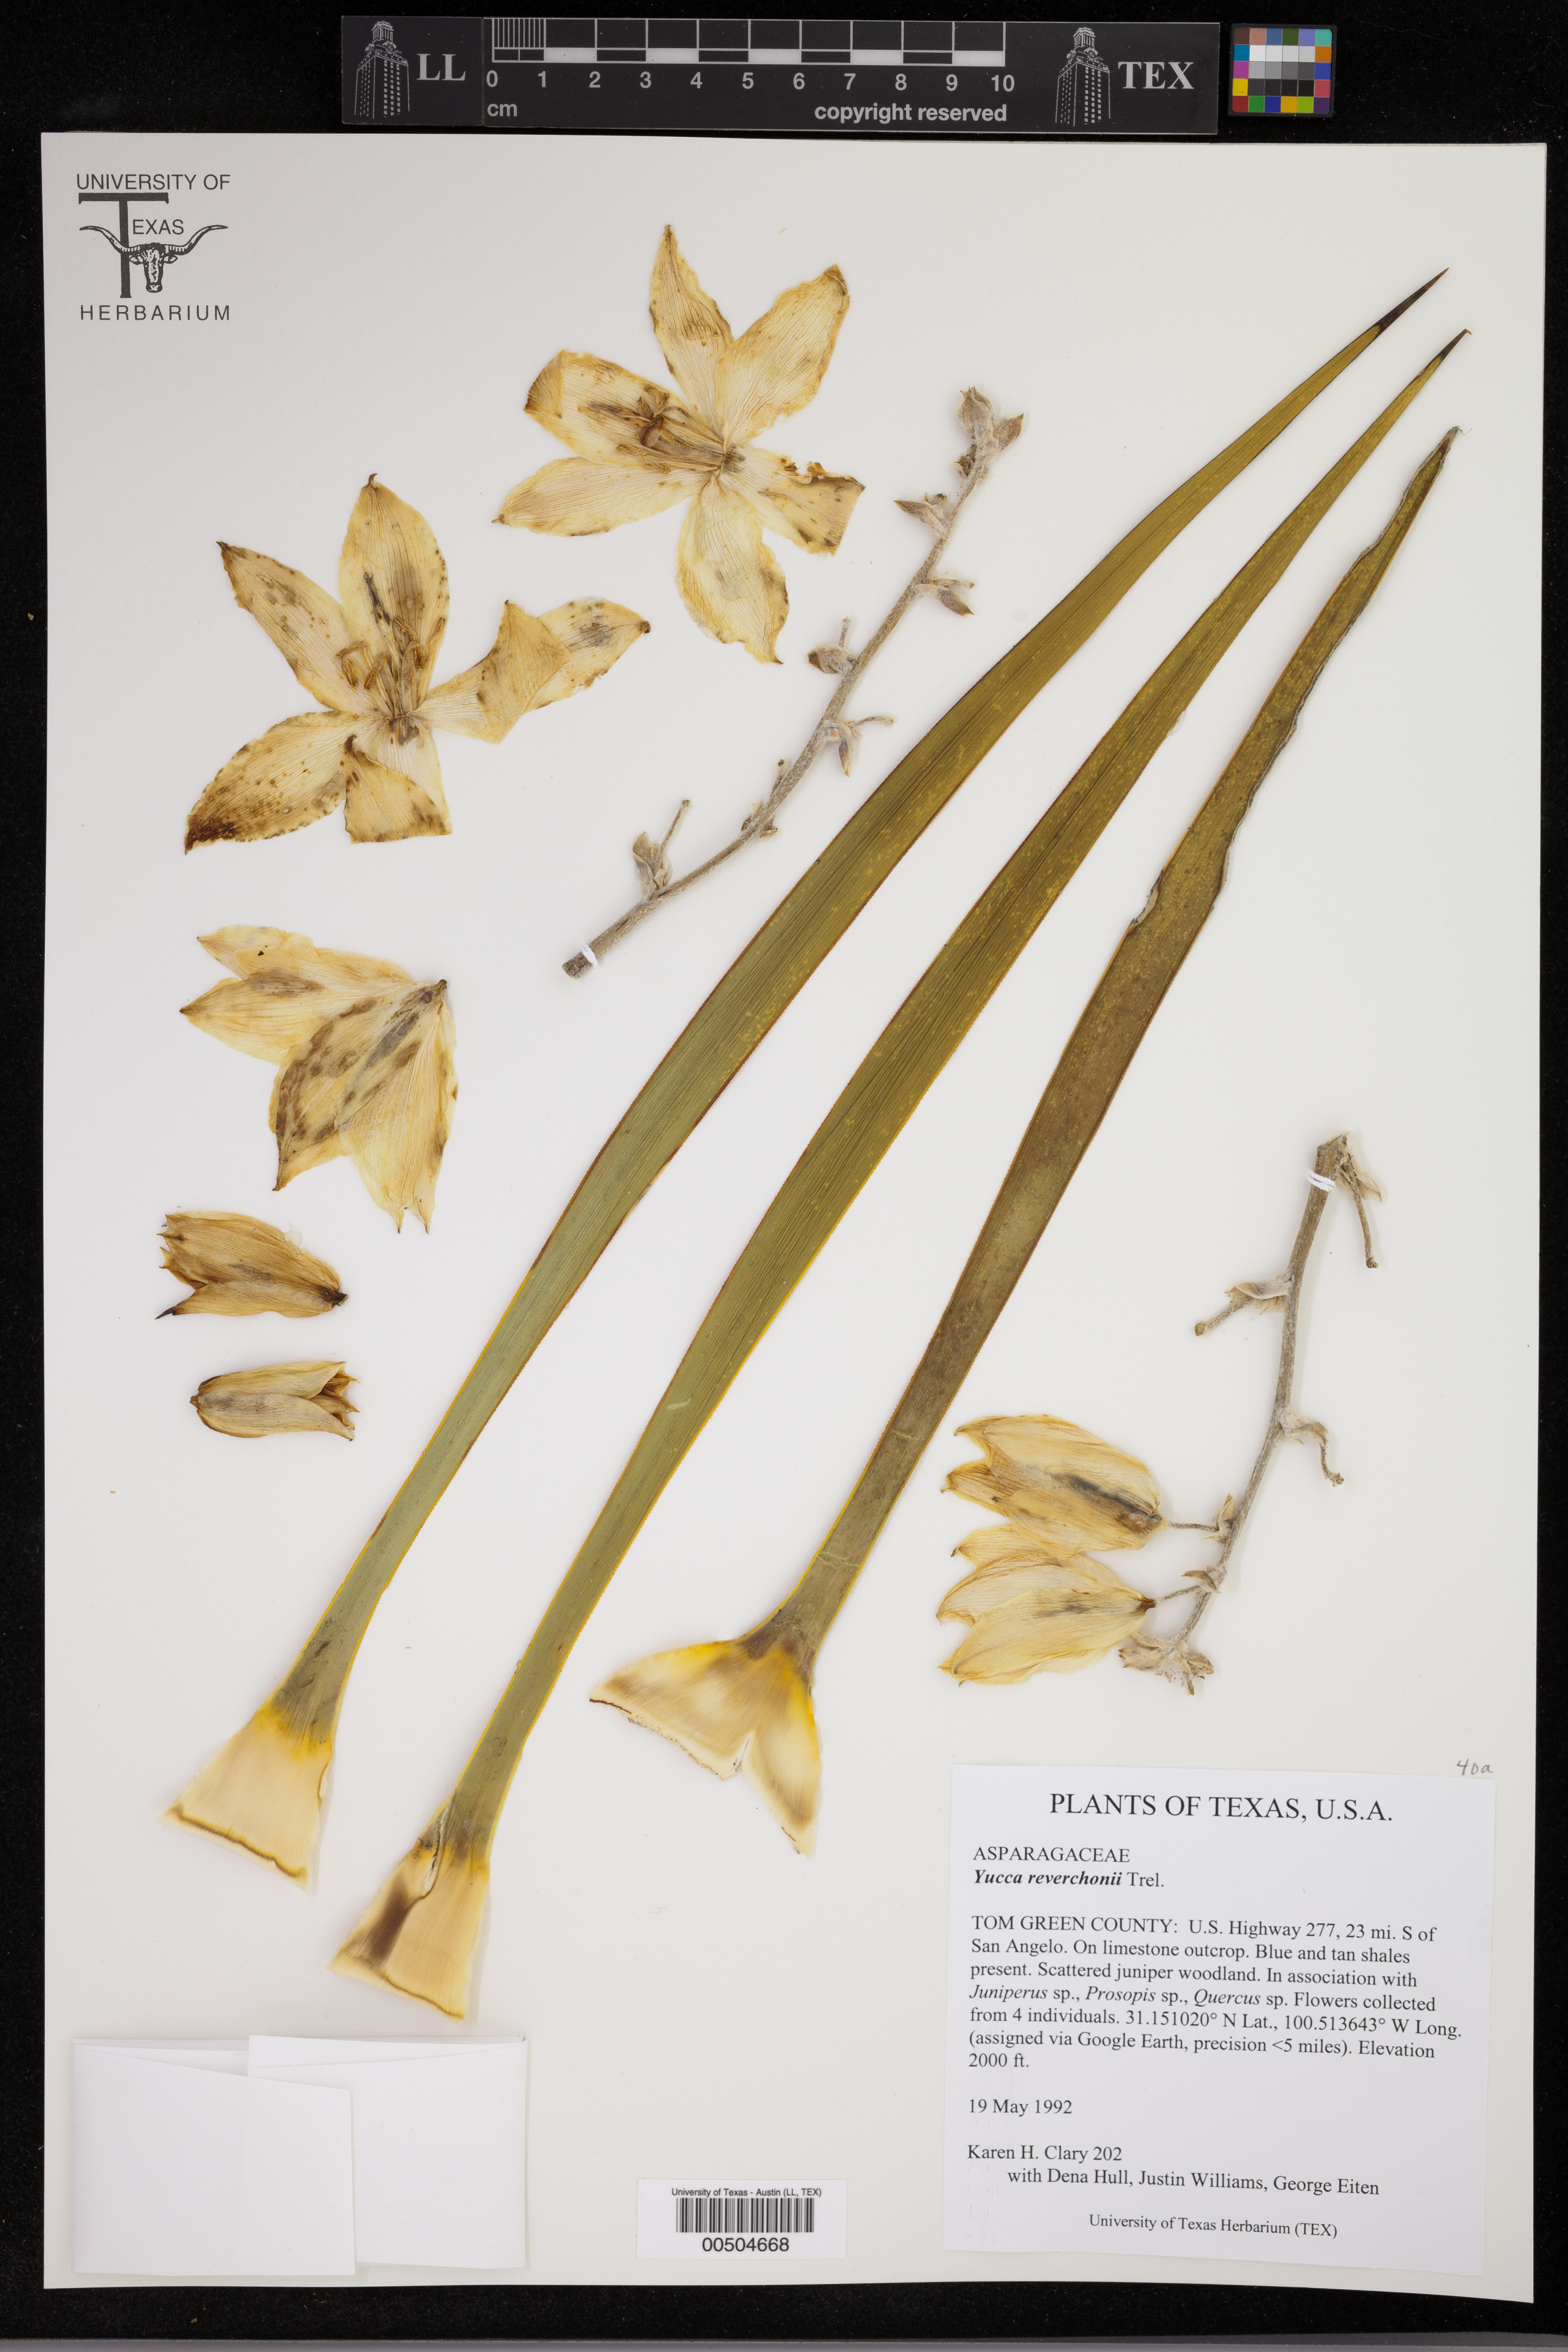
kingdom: Plantae
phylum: Tracheophyta
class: Liliopsida
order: Asparagales
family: Asparagaceae
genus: Yucca
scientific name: Yucca reverchonii
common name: San angelo yucca
